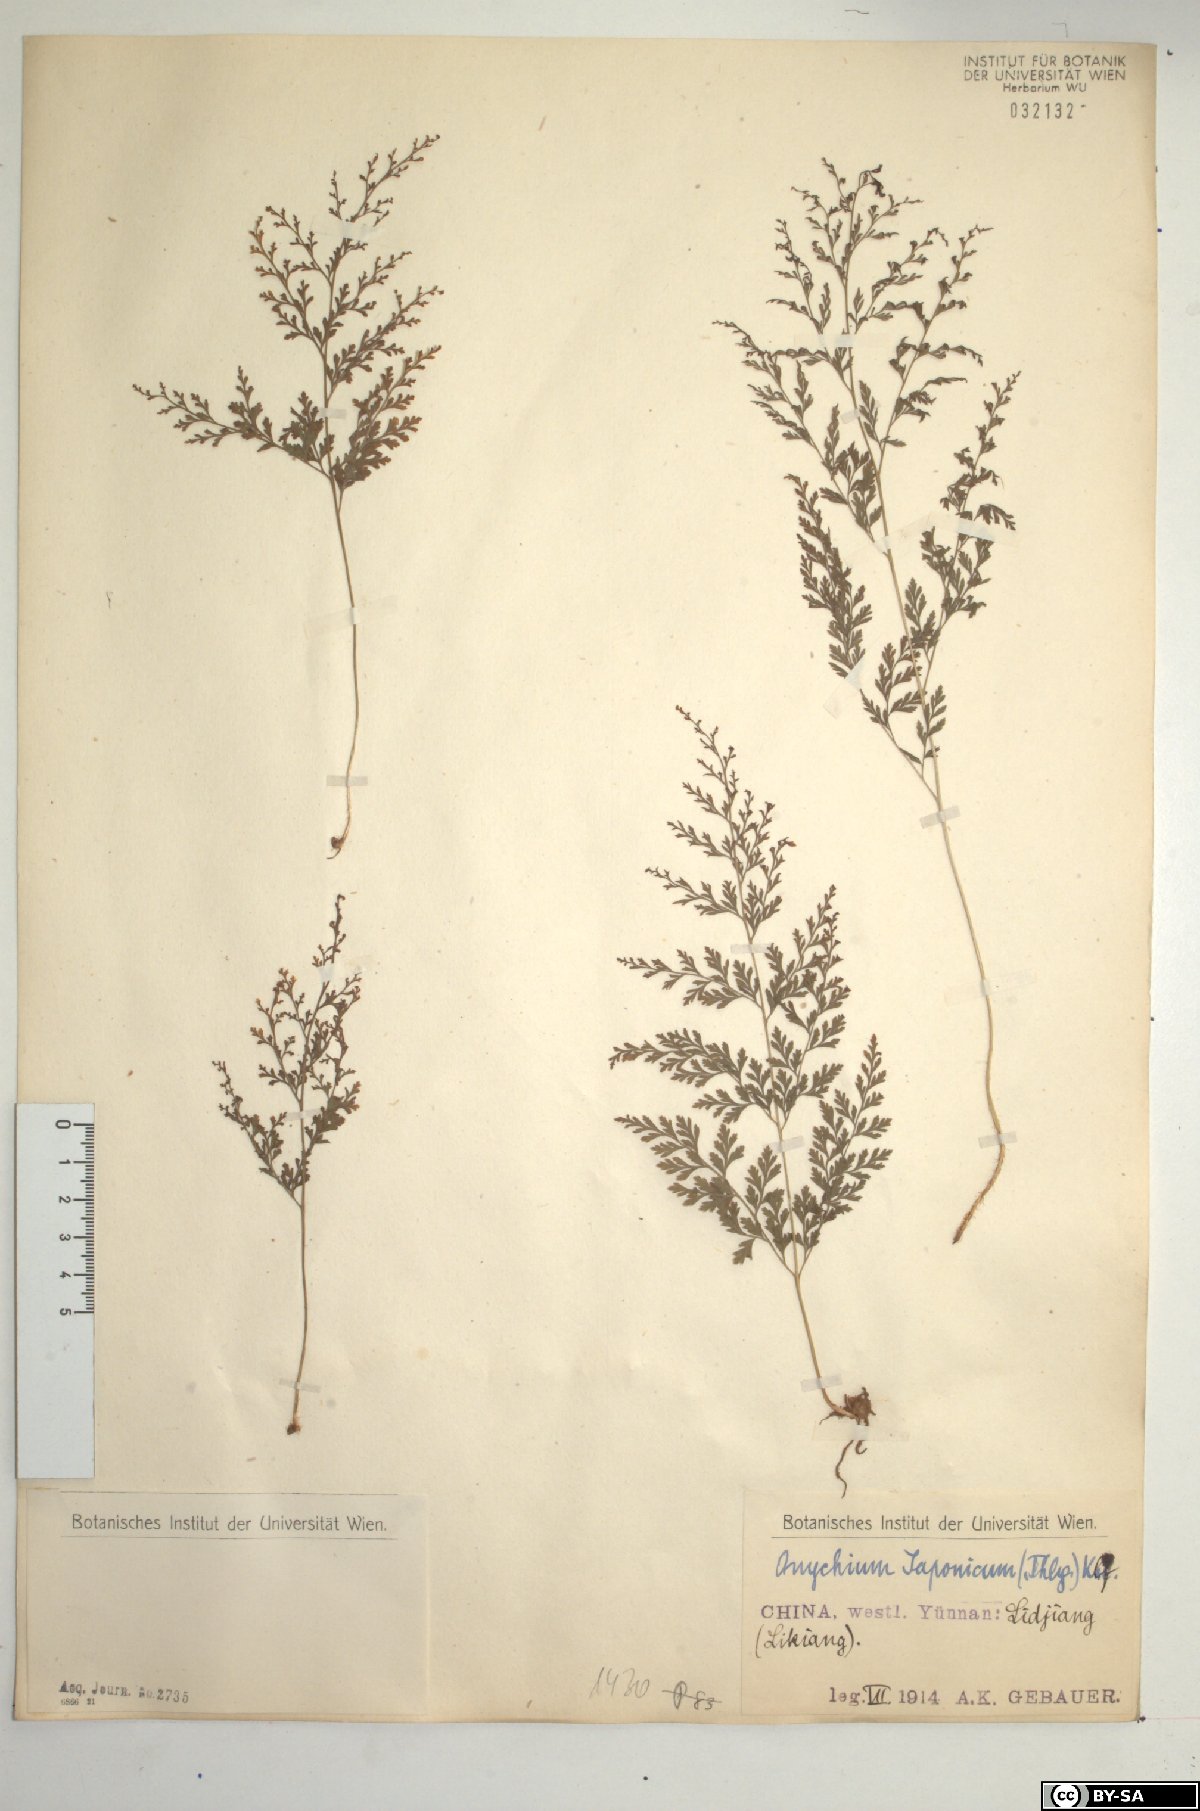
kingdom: Plantae
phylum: Tracheophyta
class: Polypodiopsida
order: Polypodiales
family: Pteridaceae
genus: Onychium
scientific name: Onychium japonicum
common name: Carrot fern
